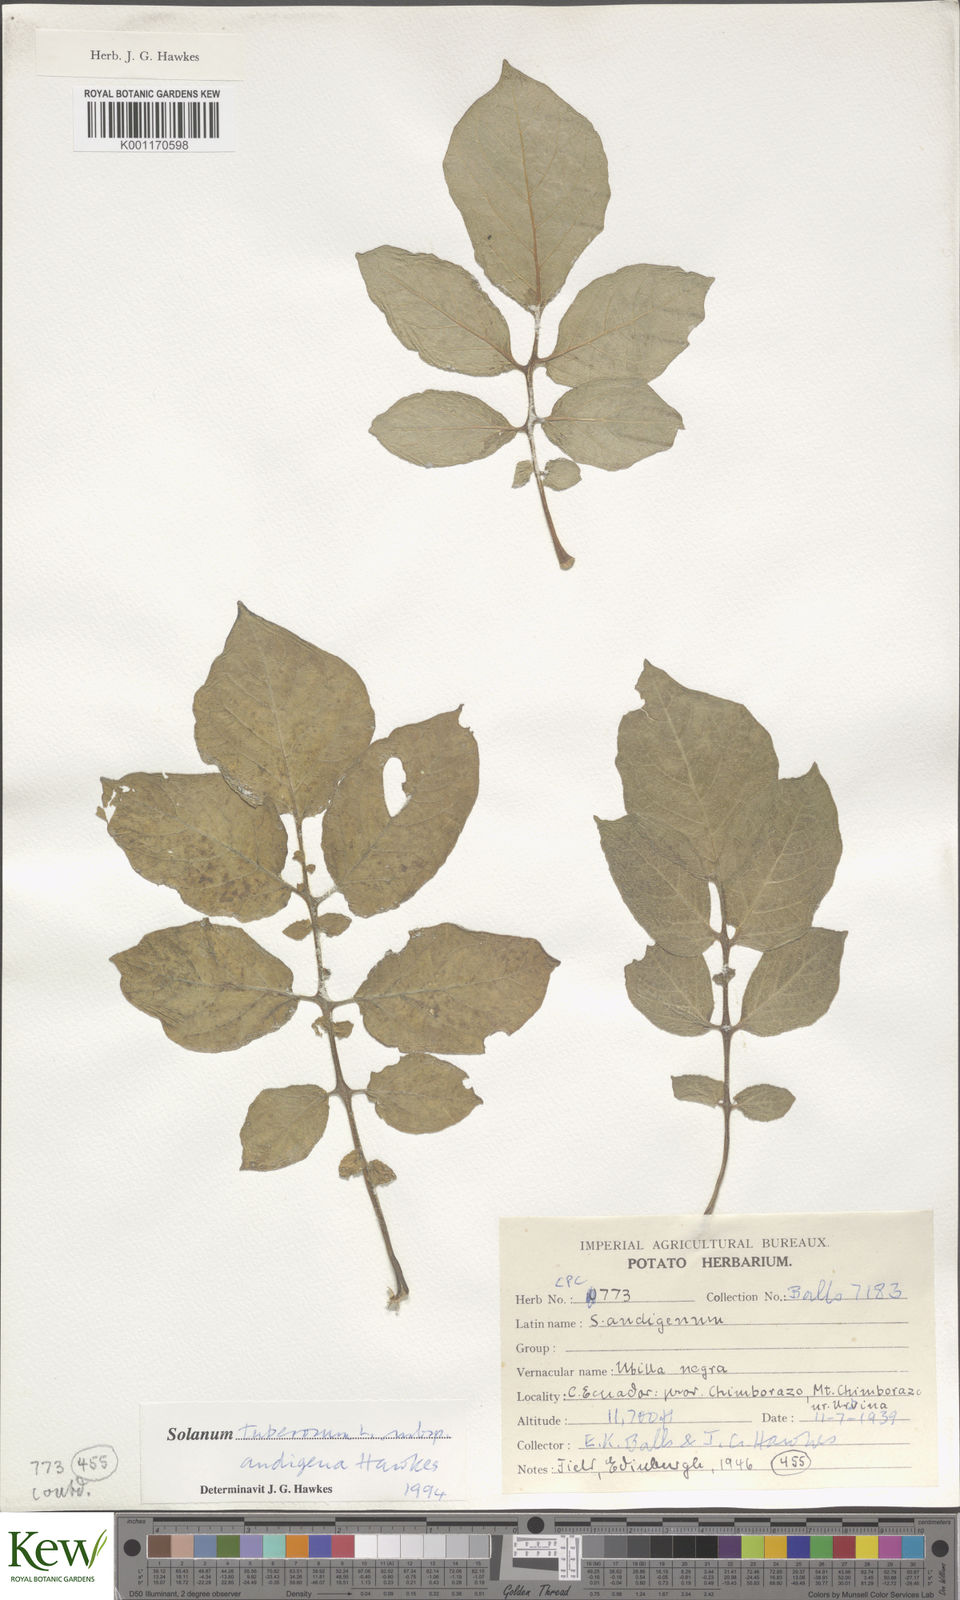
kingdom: Plantae
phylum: Tracheophyta
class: Magnoliopsida
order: Solanales
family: Solanaceae
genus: Solanum
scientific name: Solanum tuberosum
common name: Potato
